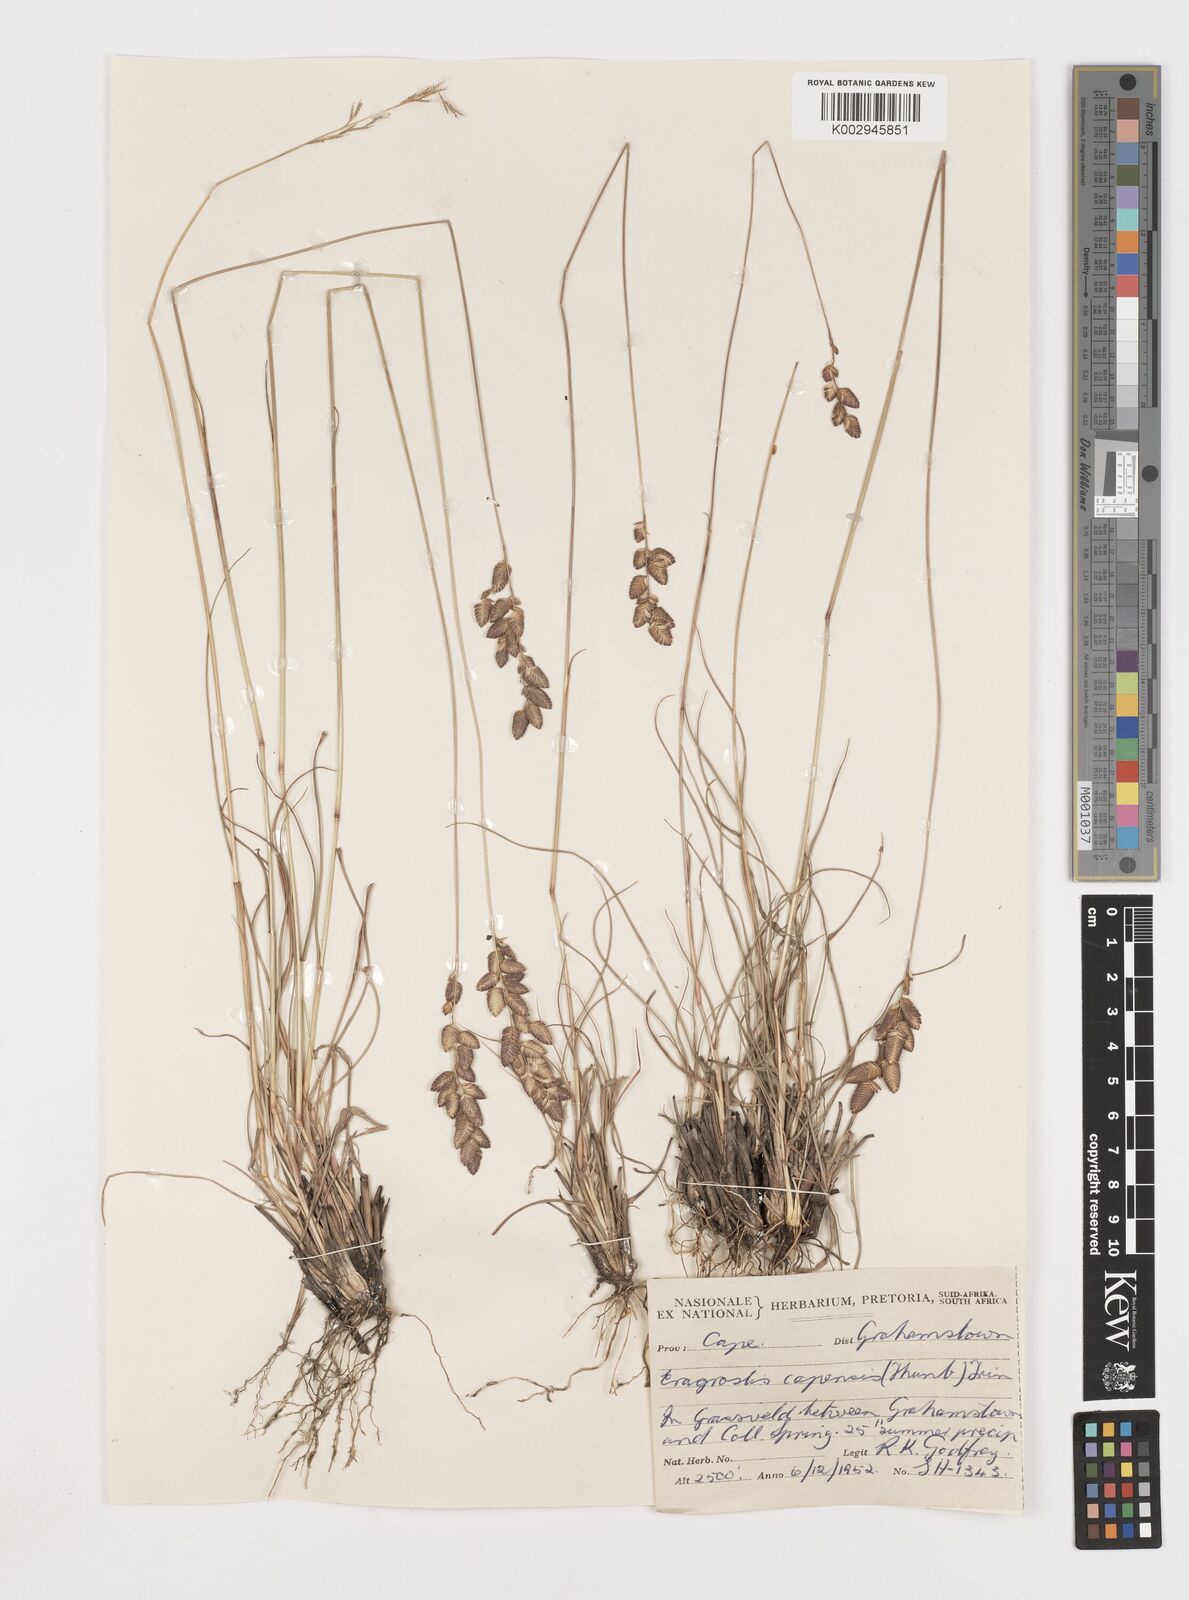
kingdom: Plantae
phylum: Tracheophyta
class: Liliopsida
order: Poales
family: Poaceae
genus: Eragrostis
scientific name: Eragrostis capensis
